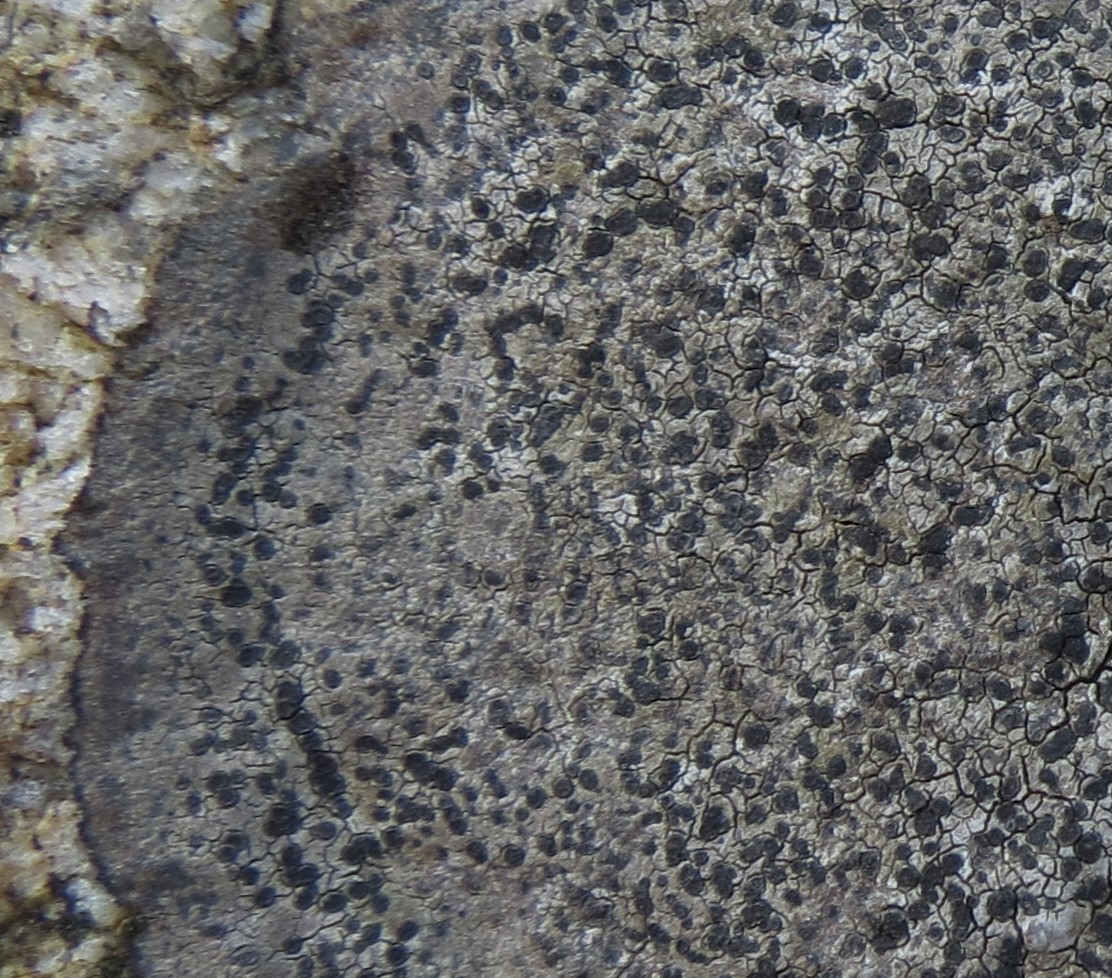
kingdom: Fungi
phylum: Ascomycota
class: Lecanoromycetes
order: Rhizocarpales
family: Rhizocarpaceae
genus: Rhizocarpon
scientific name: Rhizocarpon richardii
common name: Kyst-landkortlav
